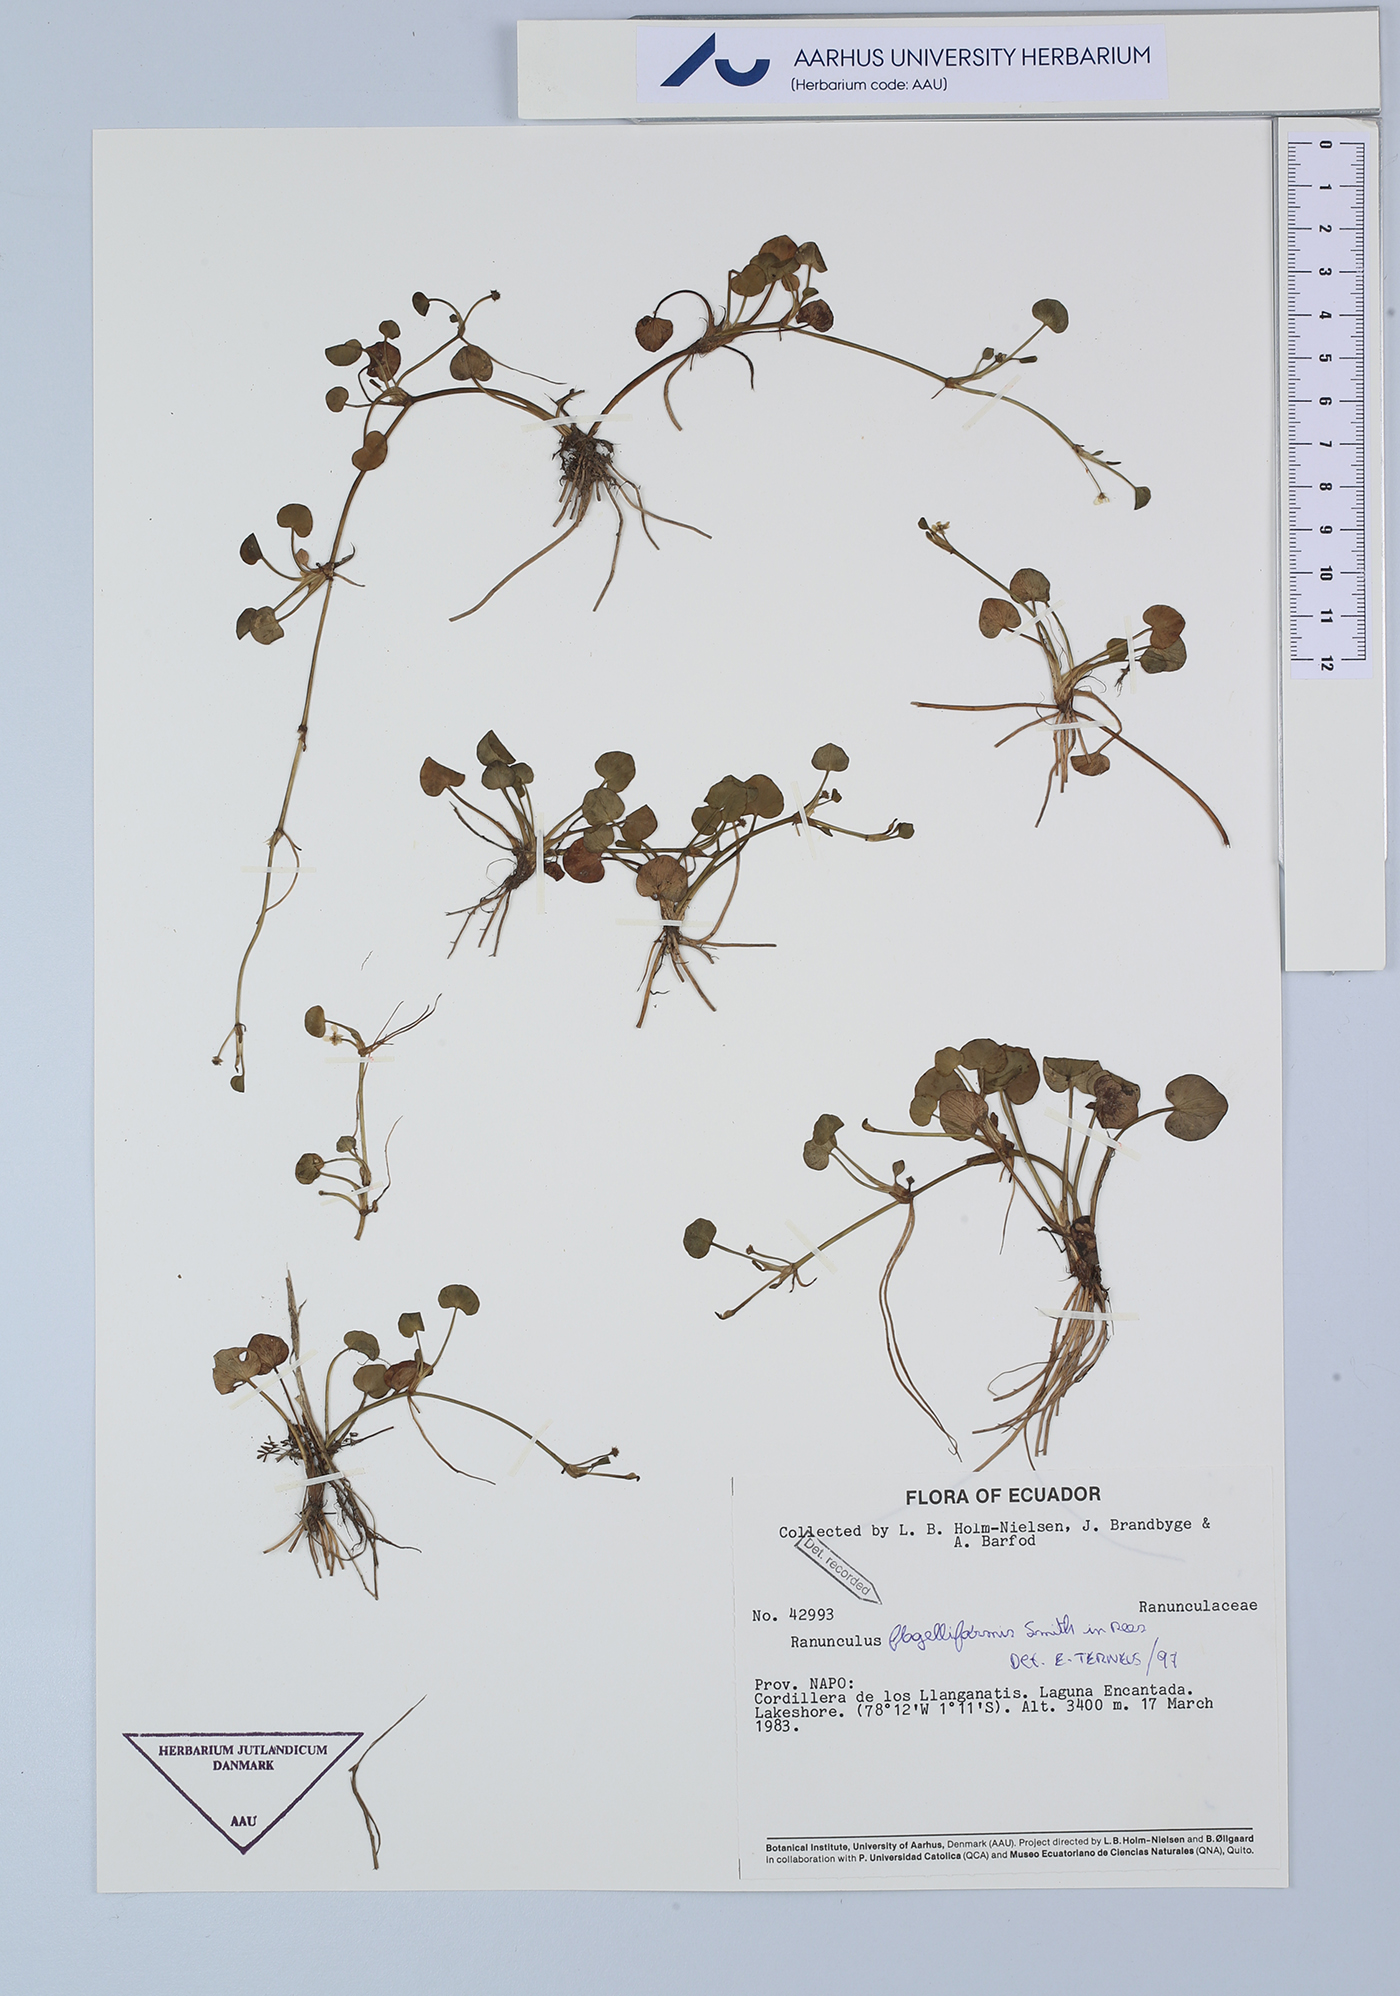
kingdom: Plantae
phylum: Tracheophyta
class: Magnoliopsida
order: Ranunculales
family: Ranunculaceae
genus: Ranunculus
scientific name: Ranunculus flagelliformis
